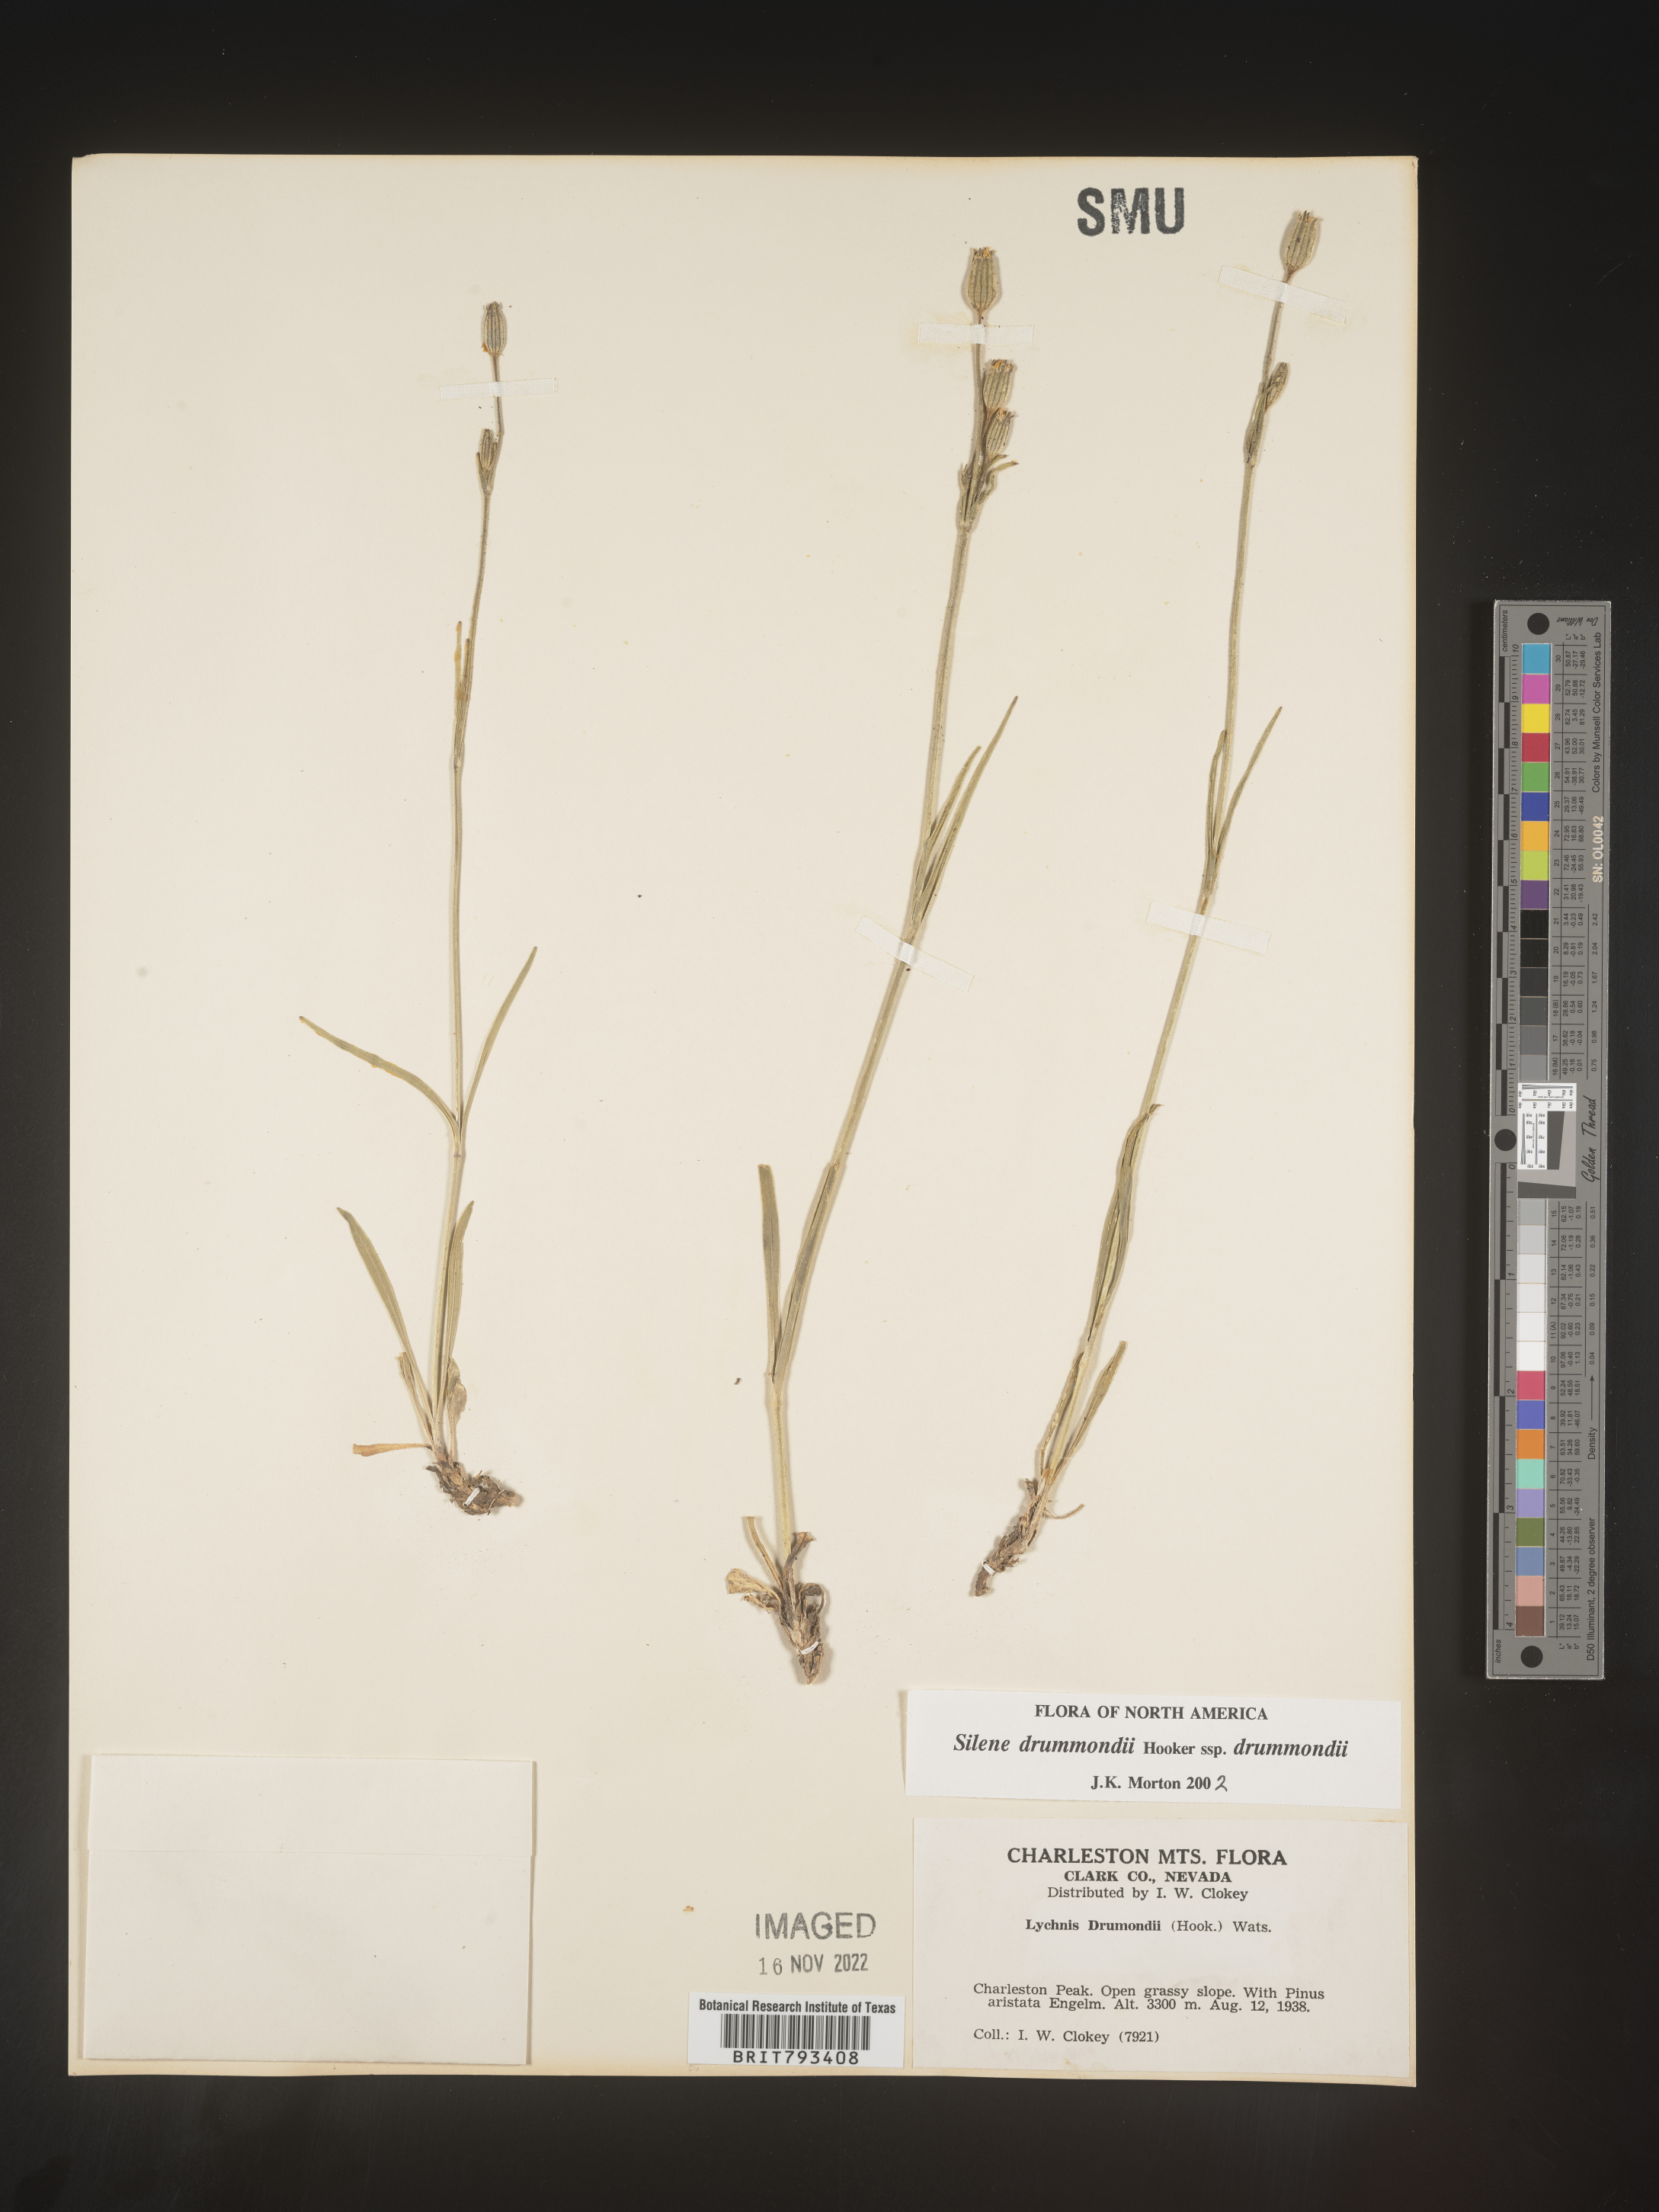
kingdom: Plantae
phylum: Tracheophyta
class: Magnoliopsida
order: Caryophyllales
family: Caryophyllaceae
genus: Silene
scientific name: Silene drummondii
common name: Drummond's catchfly
